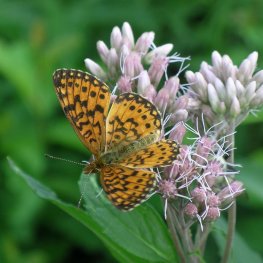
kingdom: Animalia
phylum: Arthropoda
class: Insecta
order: Lepidoptera
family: Nymphalidae
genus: Boloria
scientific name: Boloria selene
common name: Silver-bordered Fritillary
